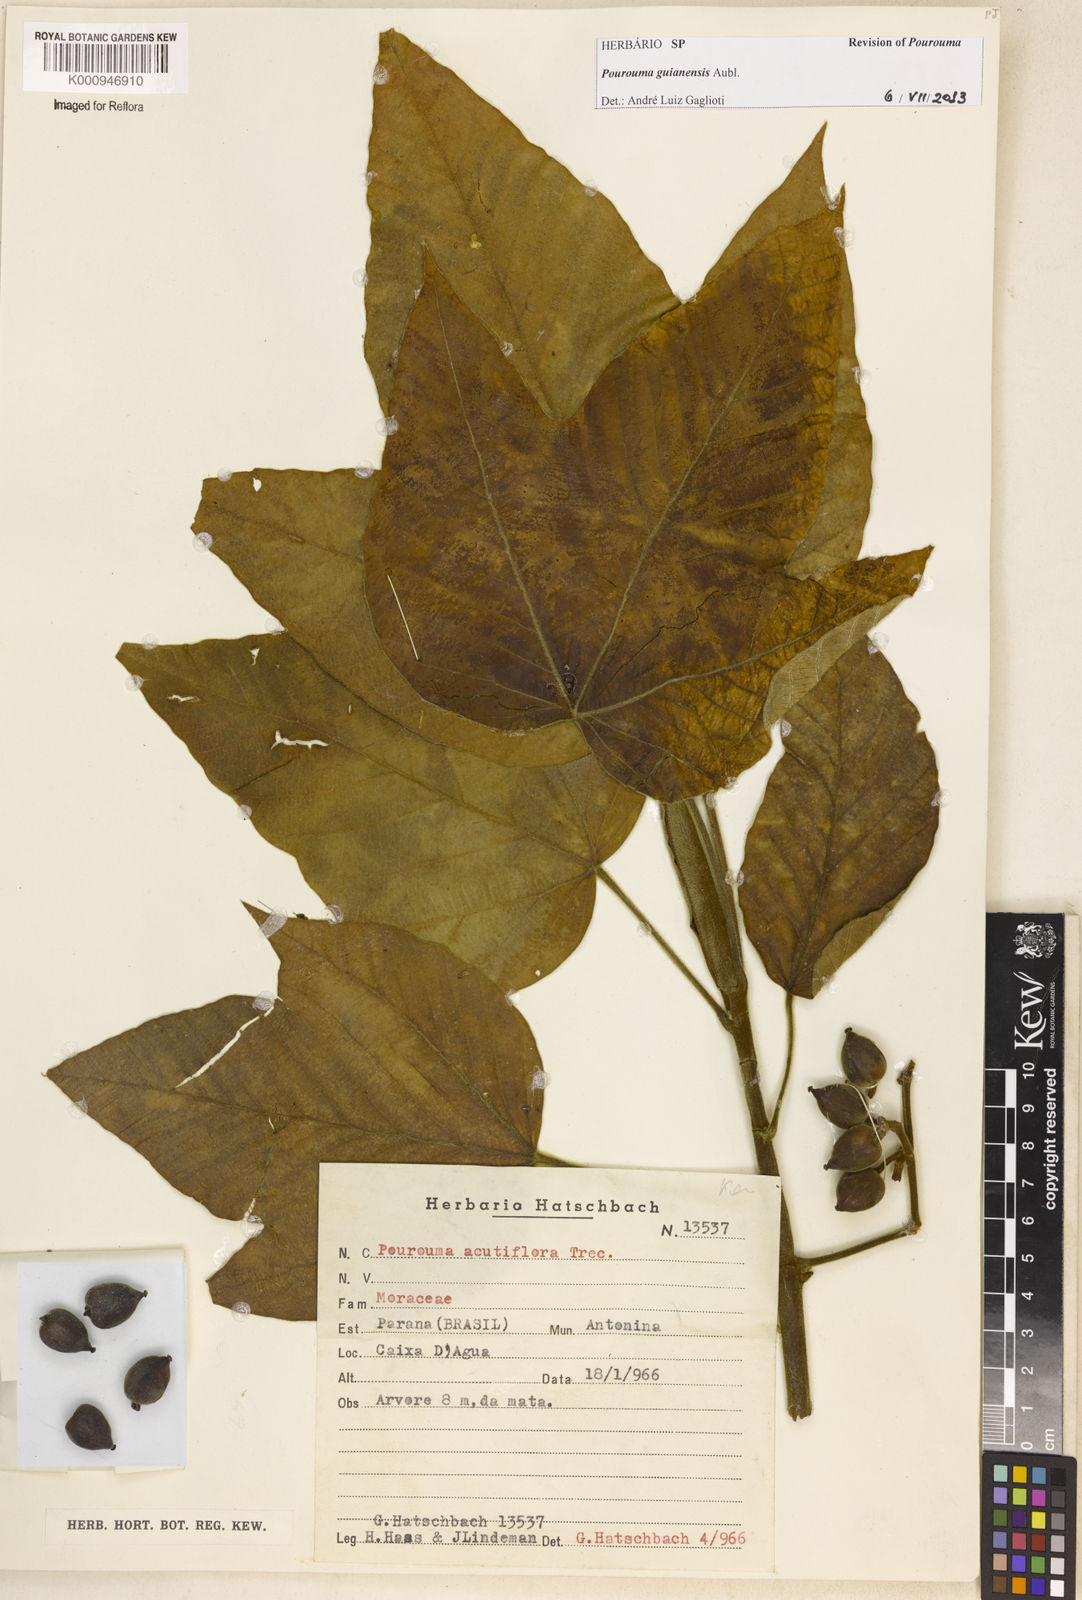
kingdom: Plantae
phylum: Tracheophyta
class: Magnoliopsida
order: Rosales
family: Urticaceae
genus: Pourouma
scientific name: Pourouma guianensis
